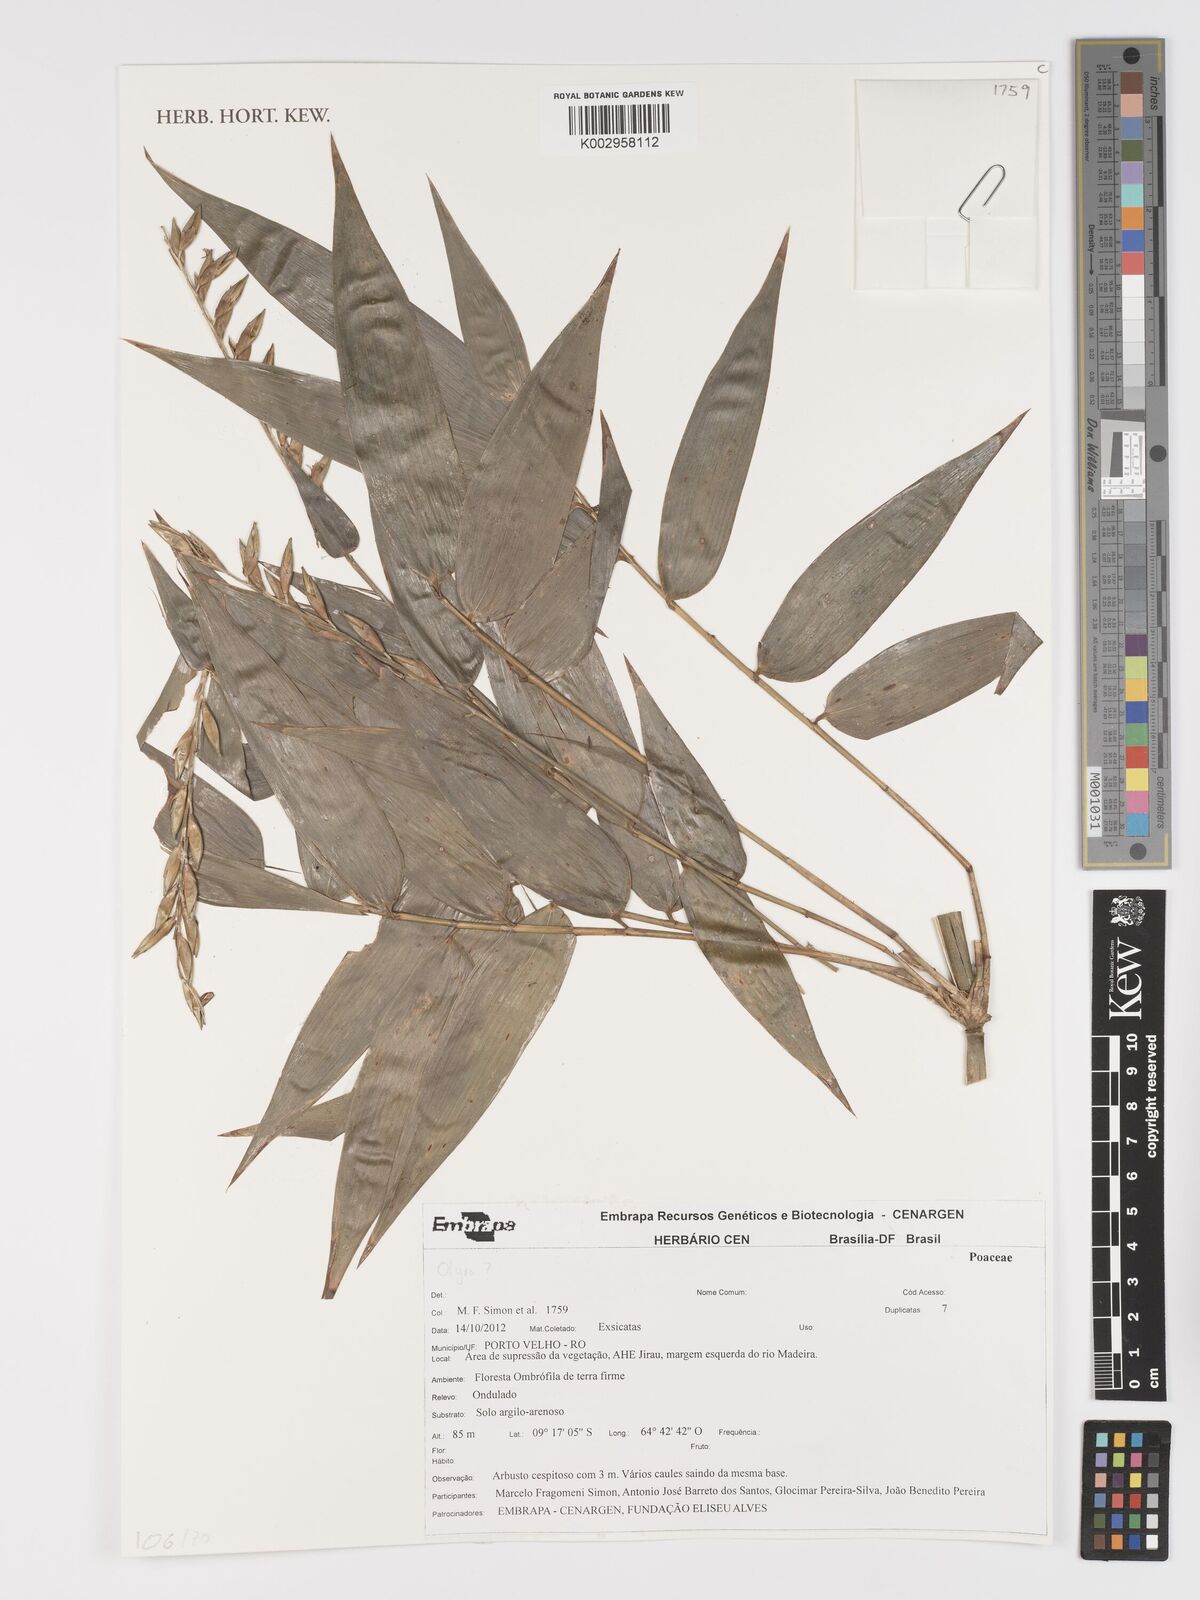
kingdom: Plantae
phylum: Tracheophyta
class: Liliopsida
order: Poales
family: Poaceae
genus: Olyra
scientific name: Olyra
